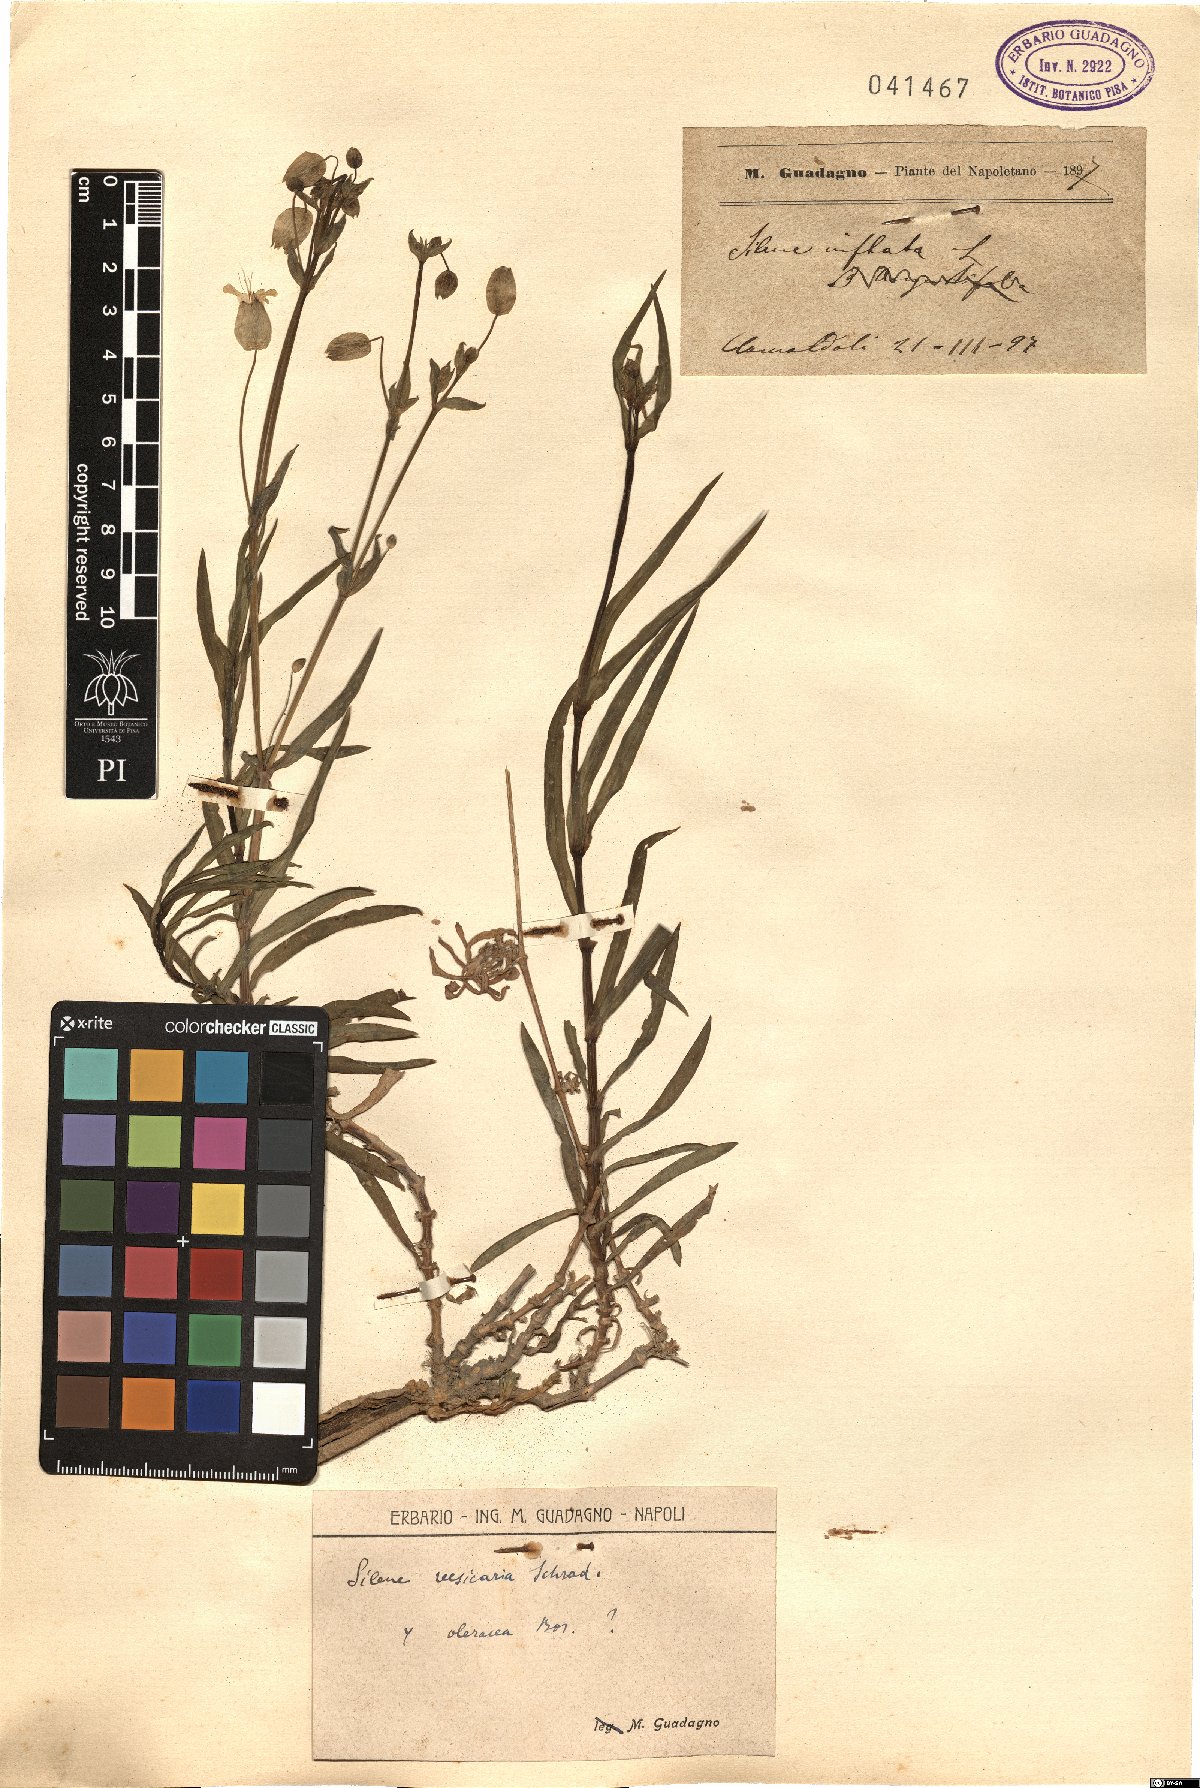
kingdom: Plantae
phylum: Tracheophyta
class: Magnoliopsida
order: Caryophyllales
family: Caryophyllaceae
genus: Silene
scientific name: Silene vulgaris
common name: Bladder campion
